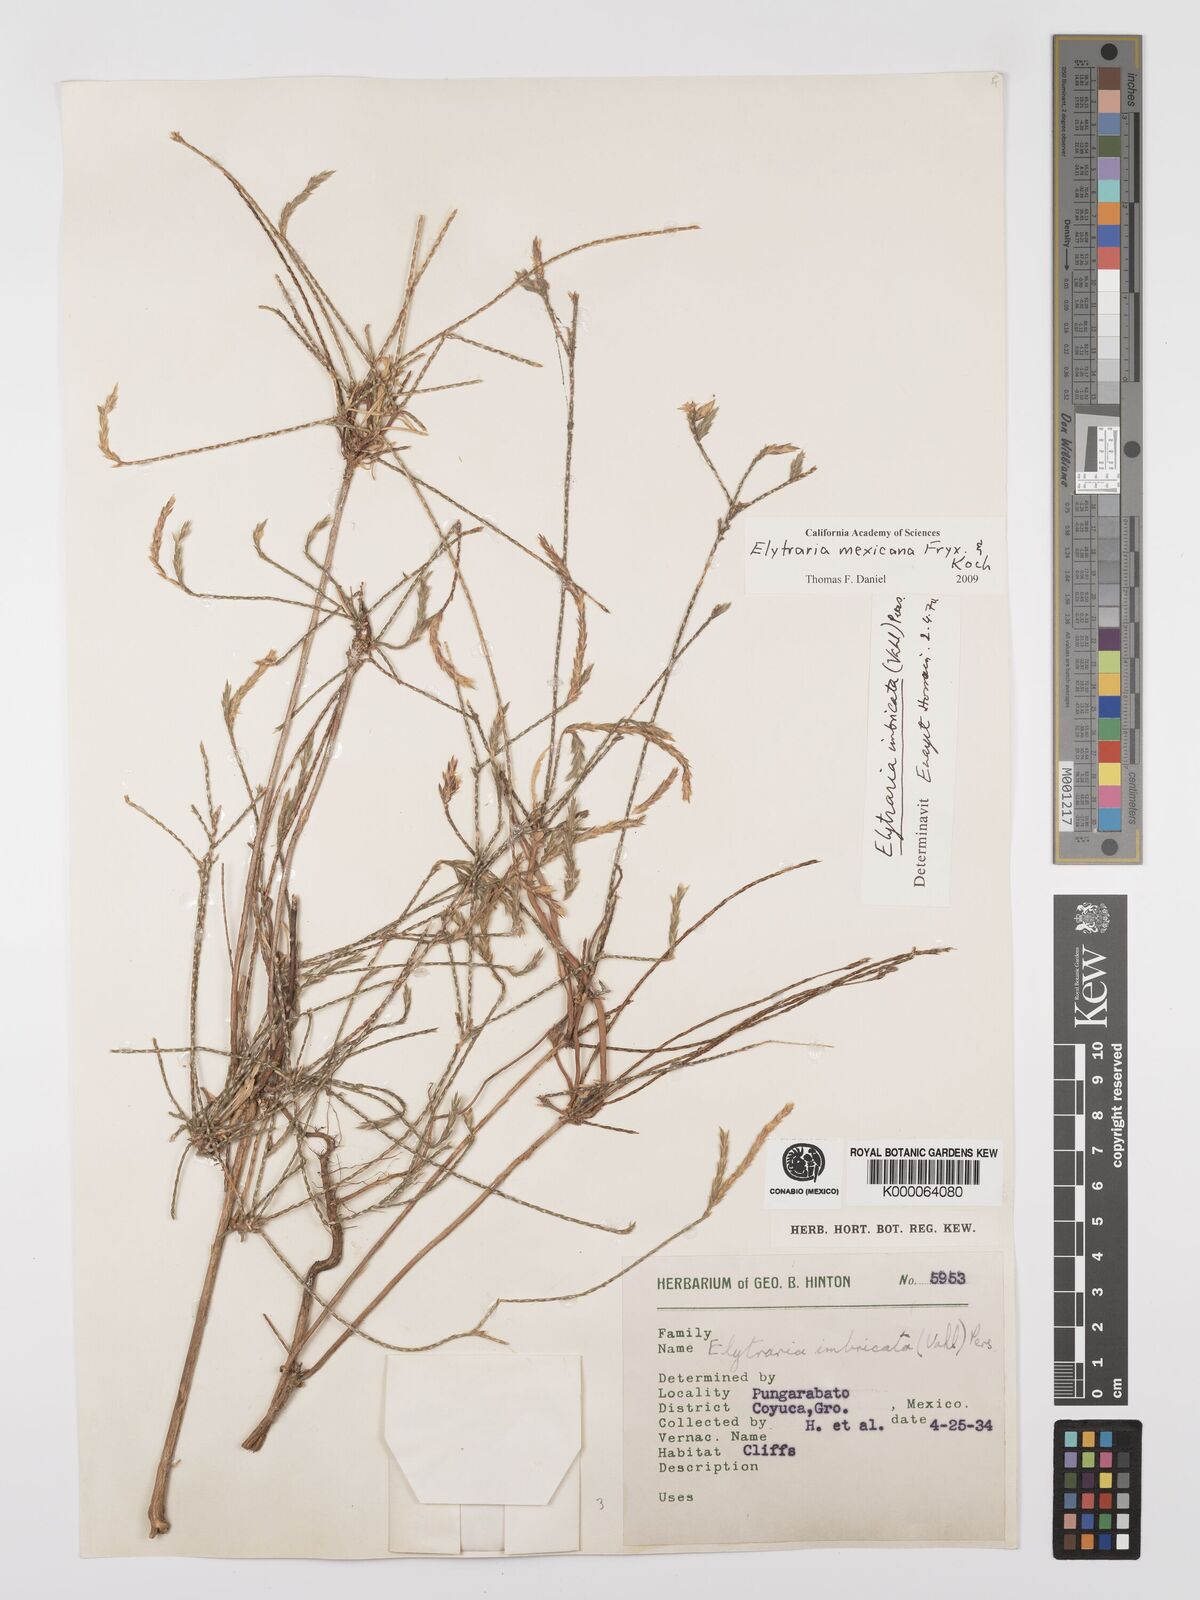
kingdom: Plantae
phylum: Tracheophyta
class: Magnoliopsida
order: Lamiales
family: Acanthaceae
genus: Elytraria
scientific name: Elytraria imbricata
